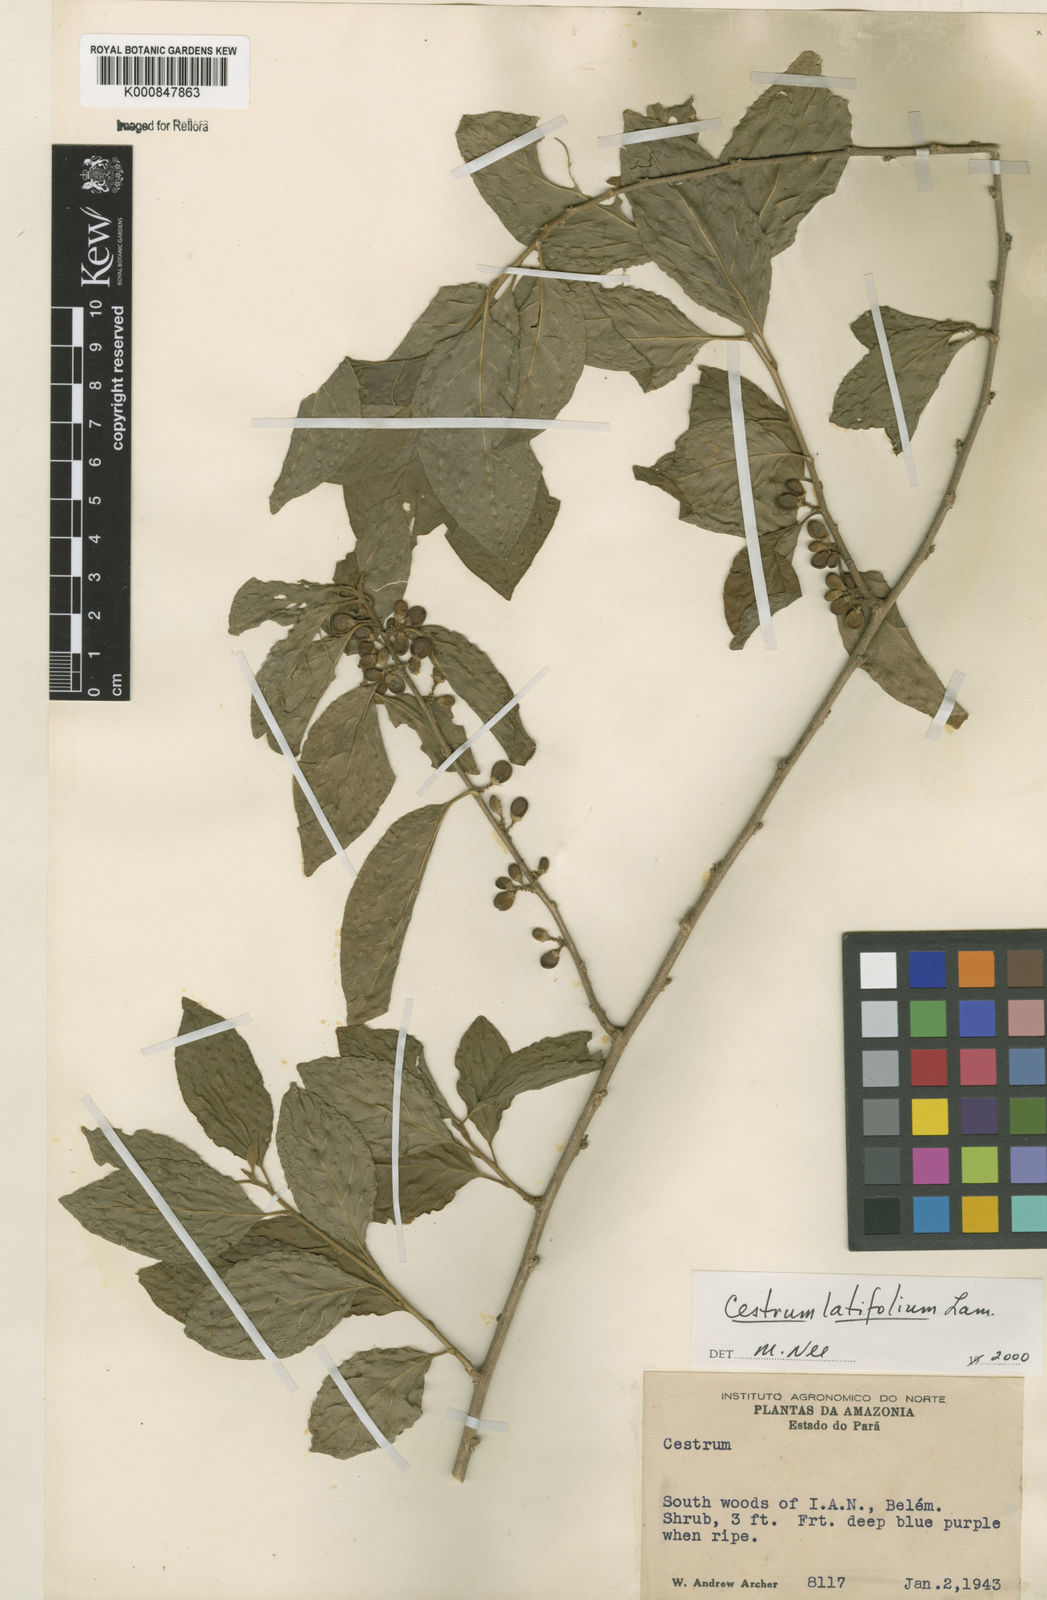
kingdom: Plantae
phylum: Tracheophyta
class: Magnoliopsida
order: Solanales
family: Solanaceae
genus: Cestrum
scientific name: Cestrum latifolium
